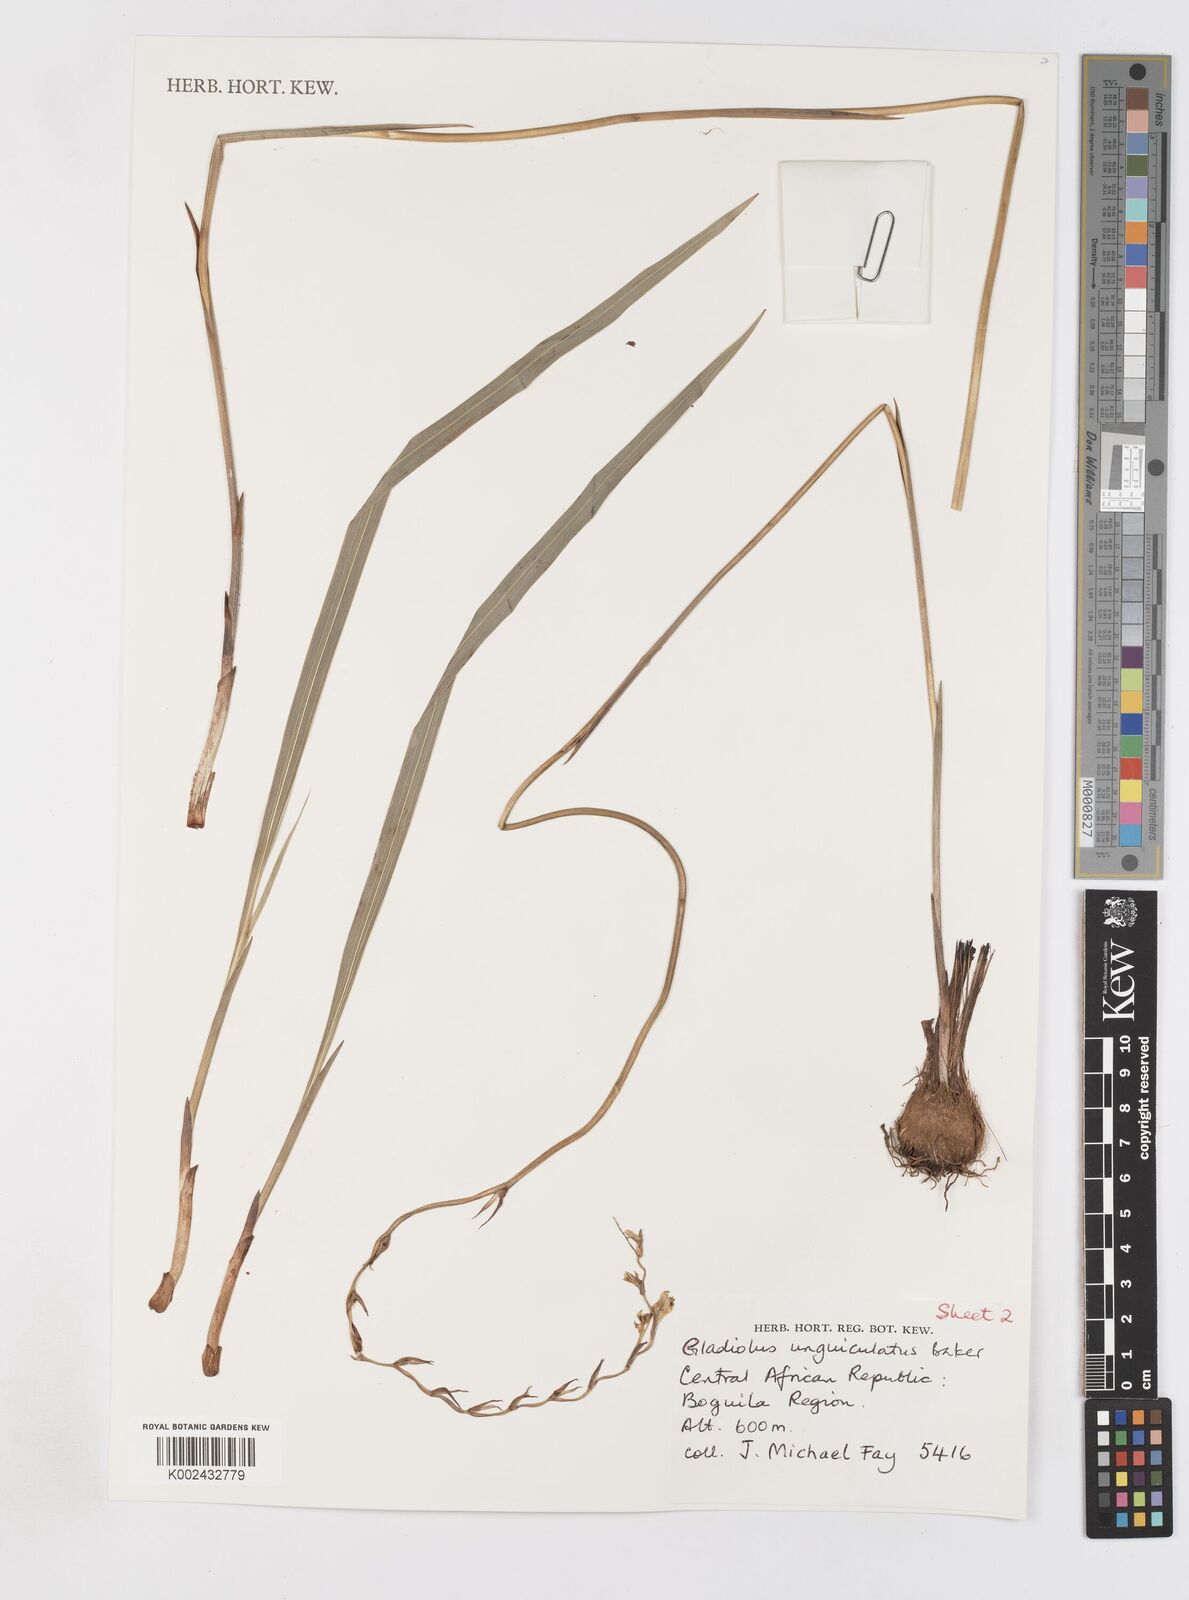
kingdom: Plantae
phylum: Tracheophyta
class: Liliopsida
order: Asparagales
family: Iridaceae
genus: Gladiolus
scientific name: Gladiolus unguiculatus
